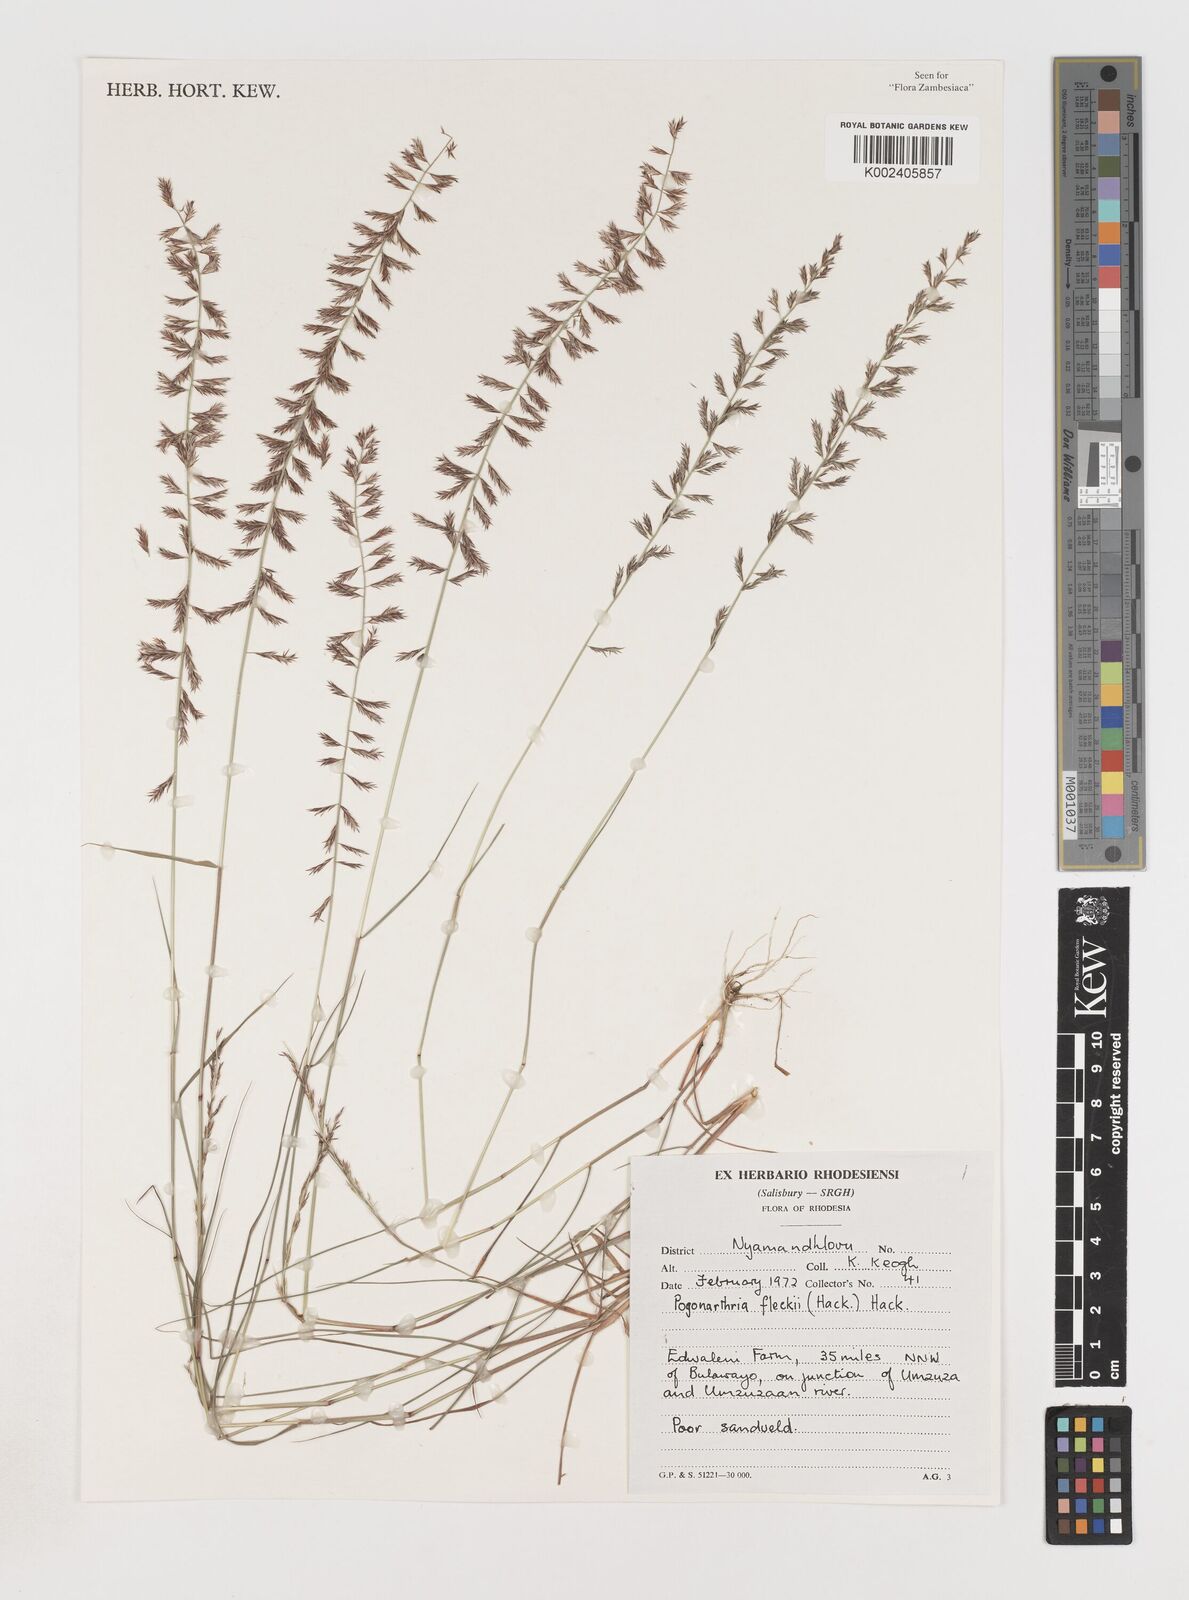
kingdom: Plantae
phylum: Tracheophyta
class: Liliopsida
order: Poales
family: Poaceae
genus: Pogonarthria
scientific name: Pogonarthria fleckii
